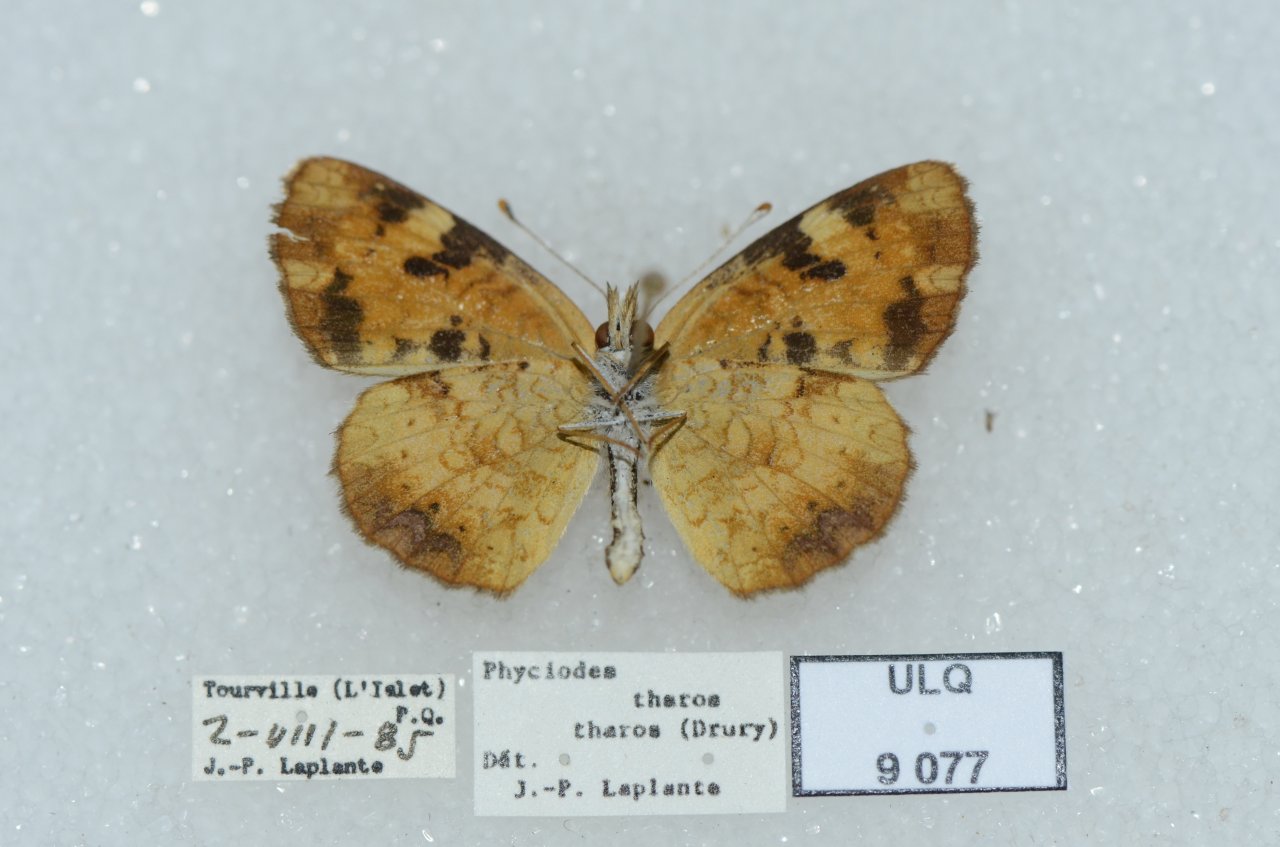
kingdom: Animalia
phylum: Arthropoda
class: Insecta
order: Lepidoptera
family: Nymphalidae
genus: Phyciodes
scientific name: Phyciodes tharos
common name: Northern Crescent
